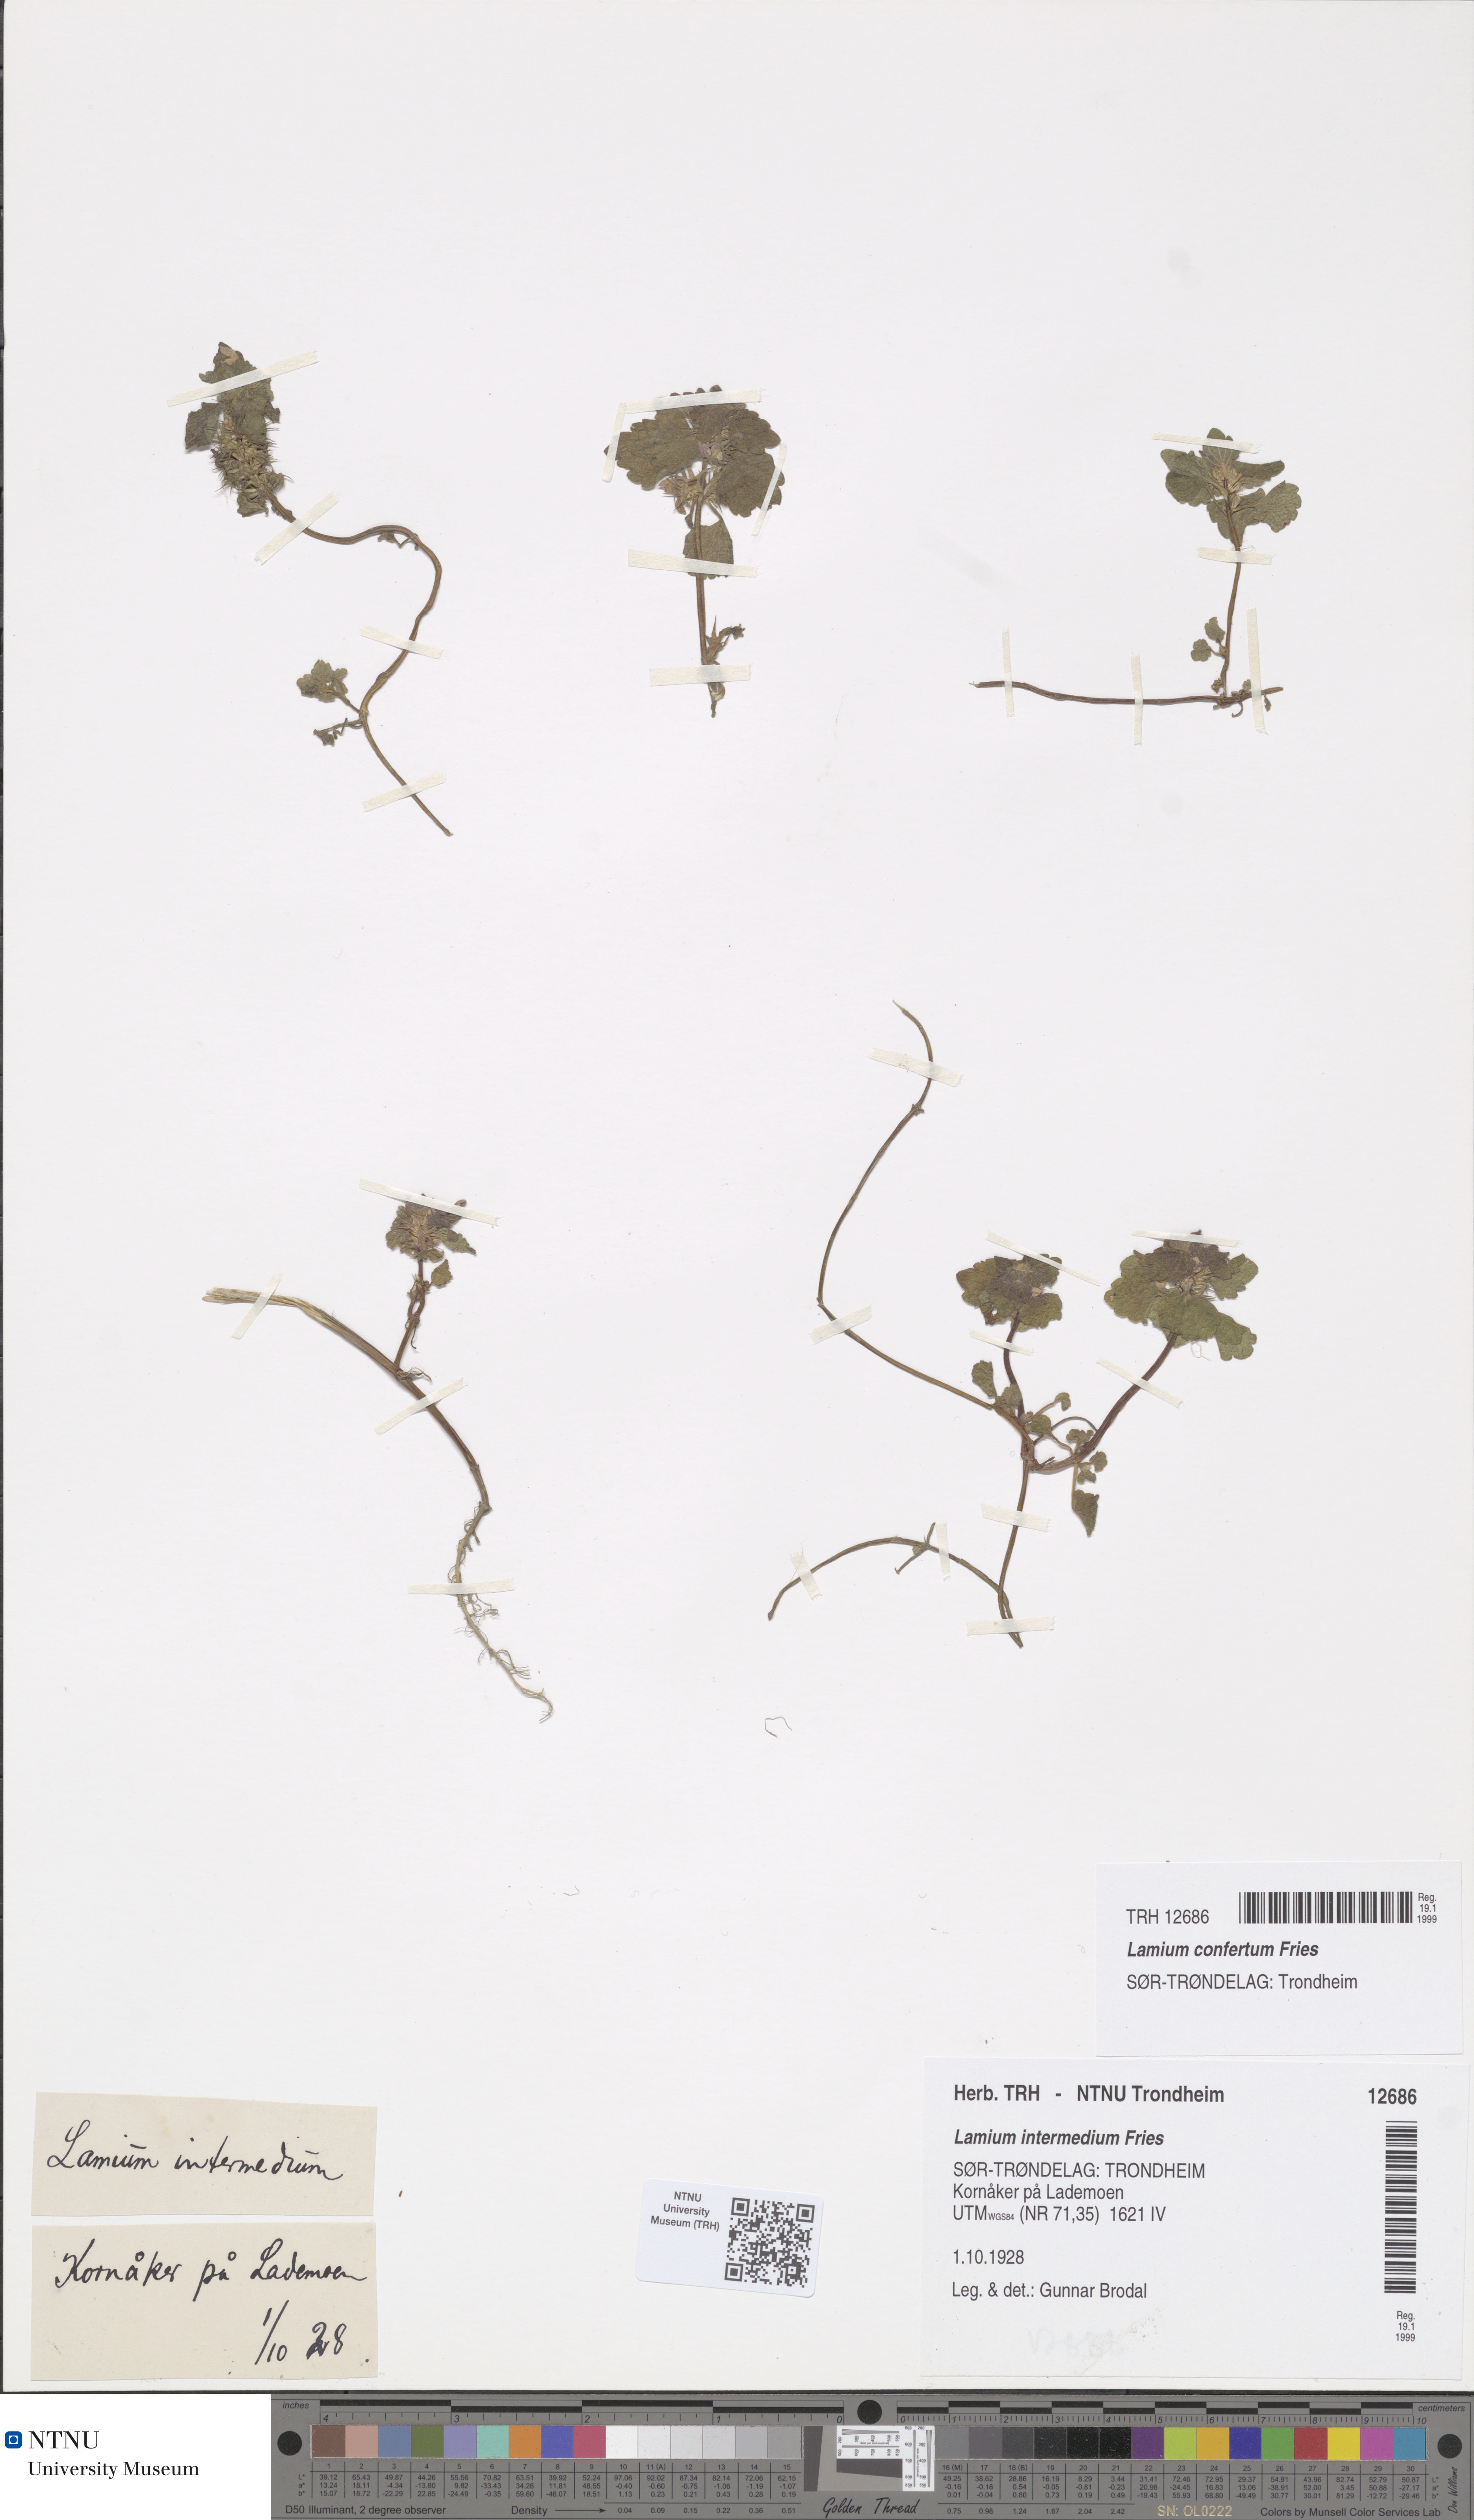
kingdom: Plantae
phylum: Tracheophyta
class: Magnoliopsida
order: Lamiales
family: Lamiaceae
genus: Lamium
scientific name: Lamium confertum
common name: Northern dead-nettle
